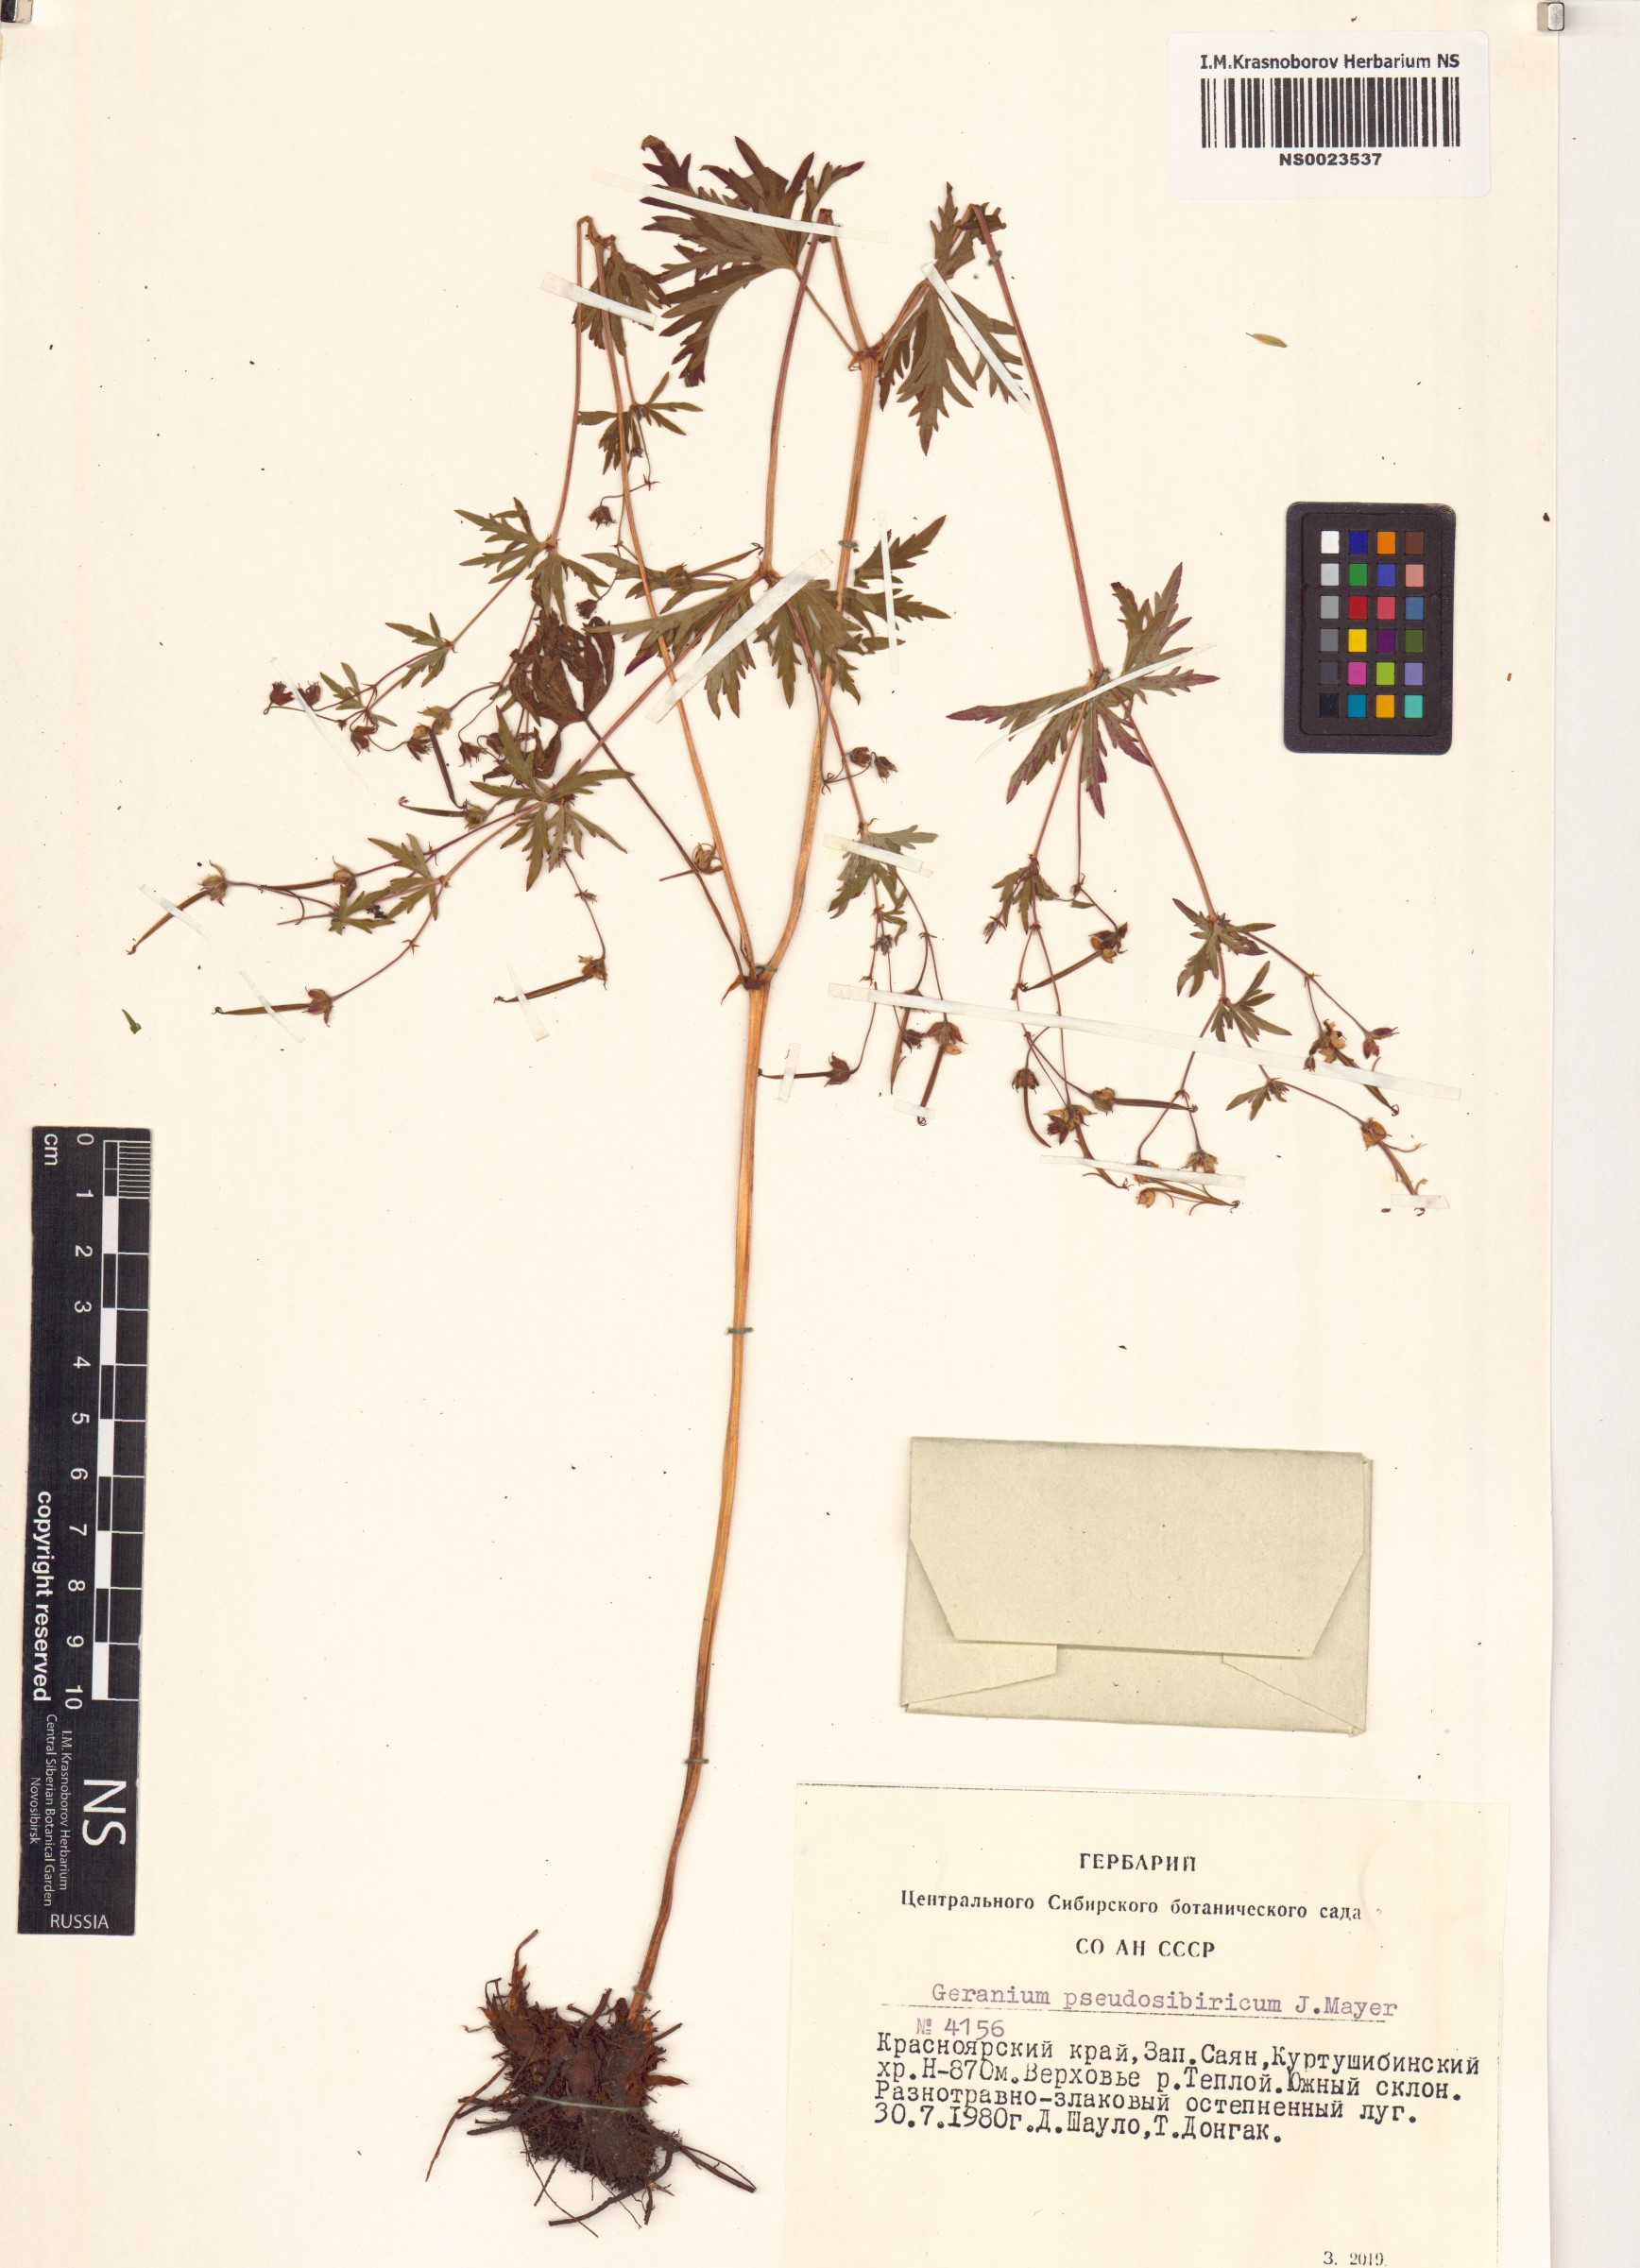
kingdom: Plantae
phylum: Tracheophyta
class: Magnoliopsida
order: Geraniales
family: Geraniaceae
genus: Geranium
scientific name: Geranium pseudosibiricum
